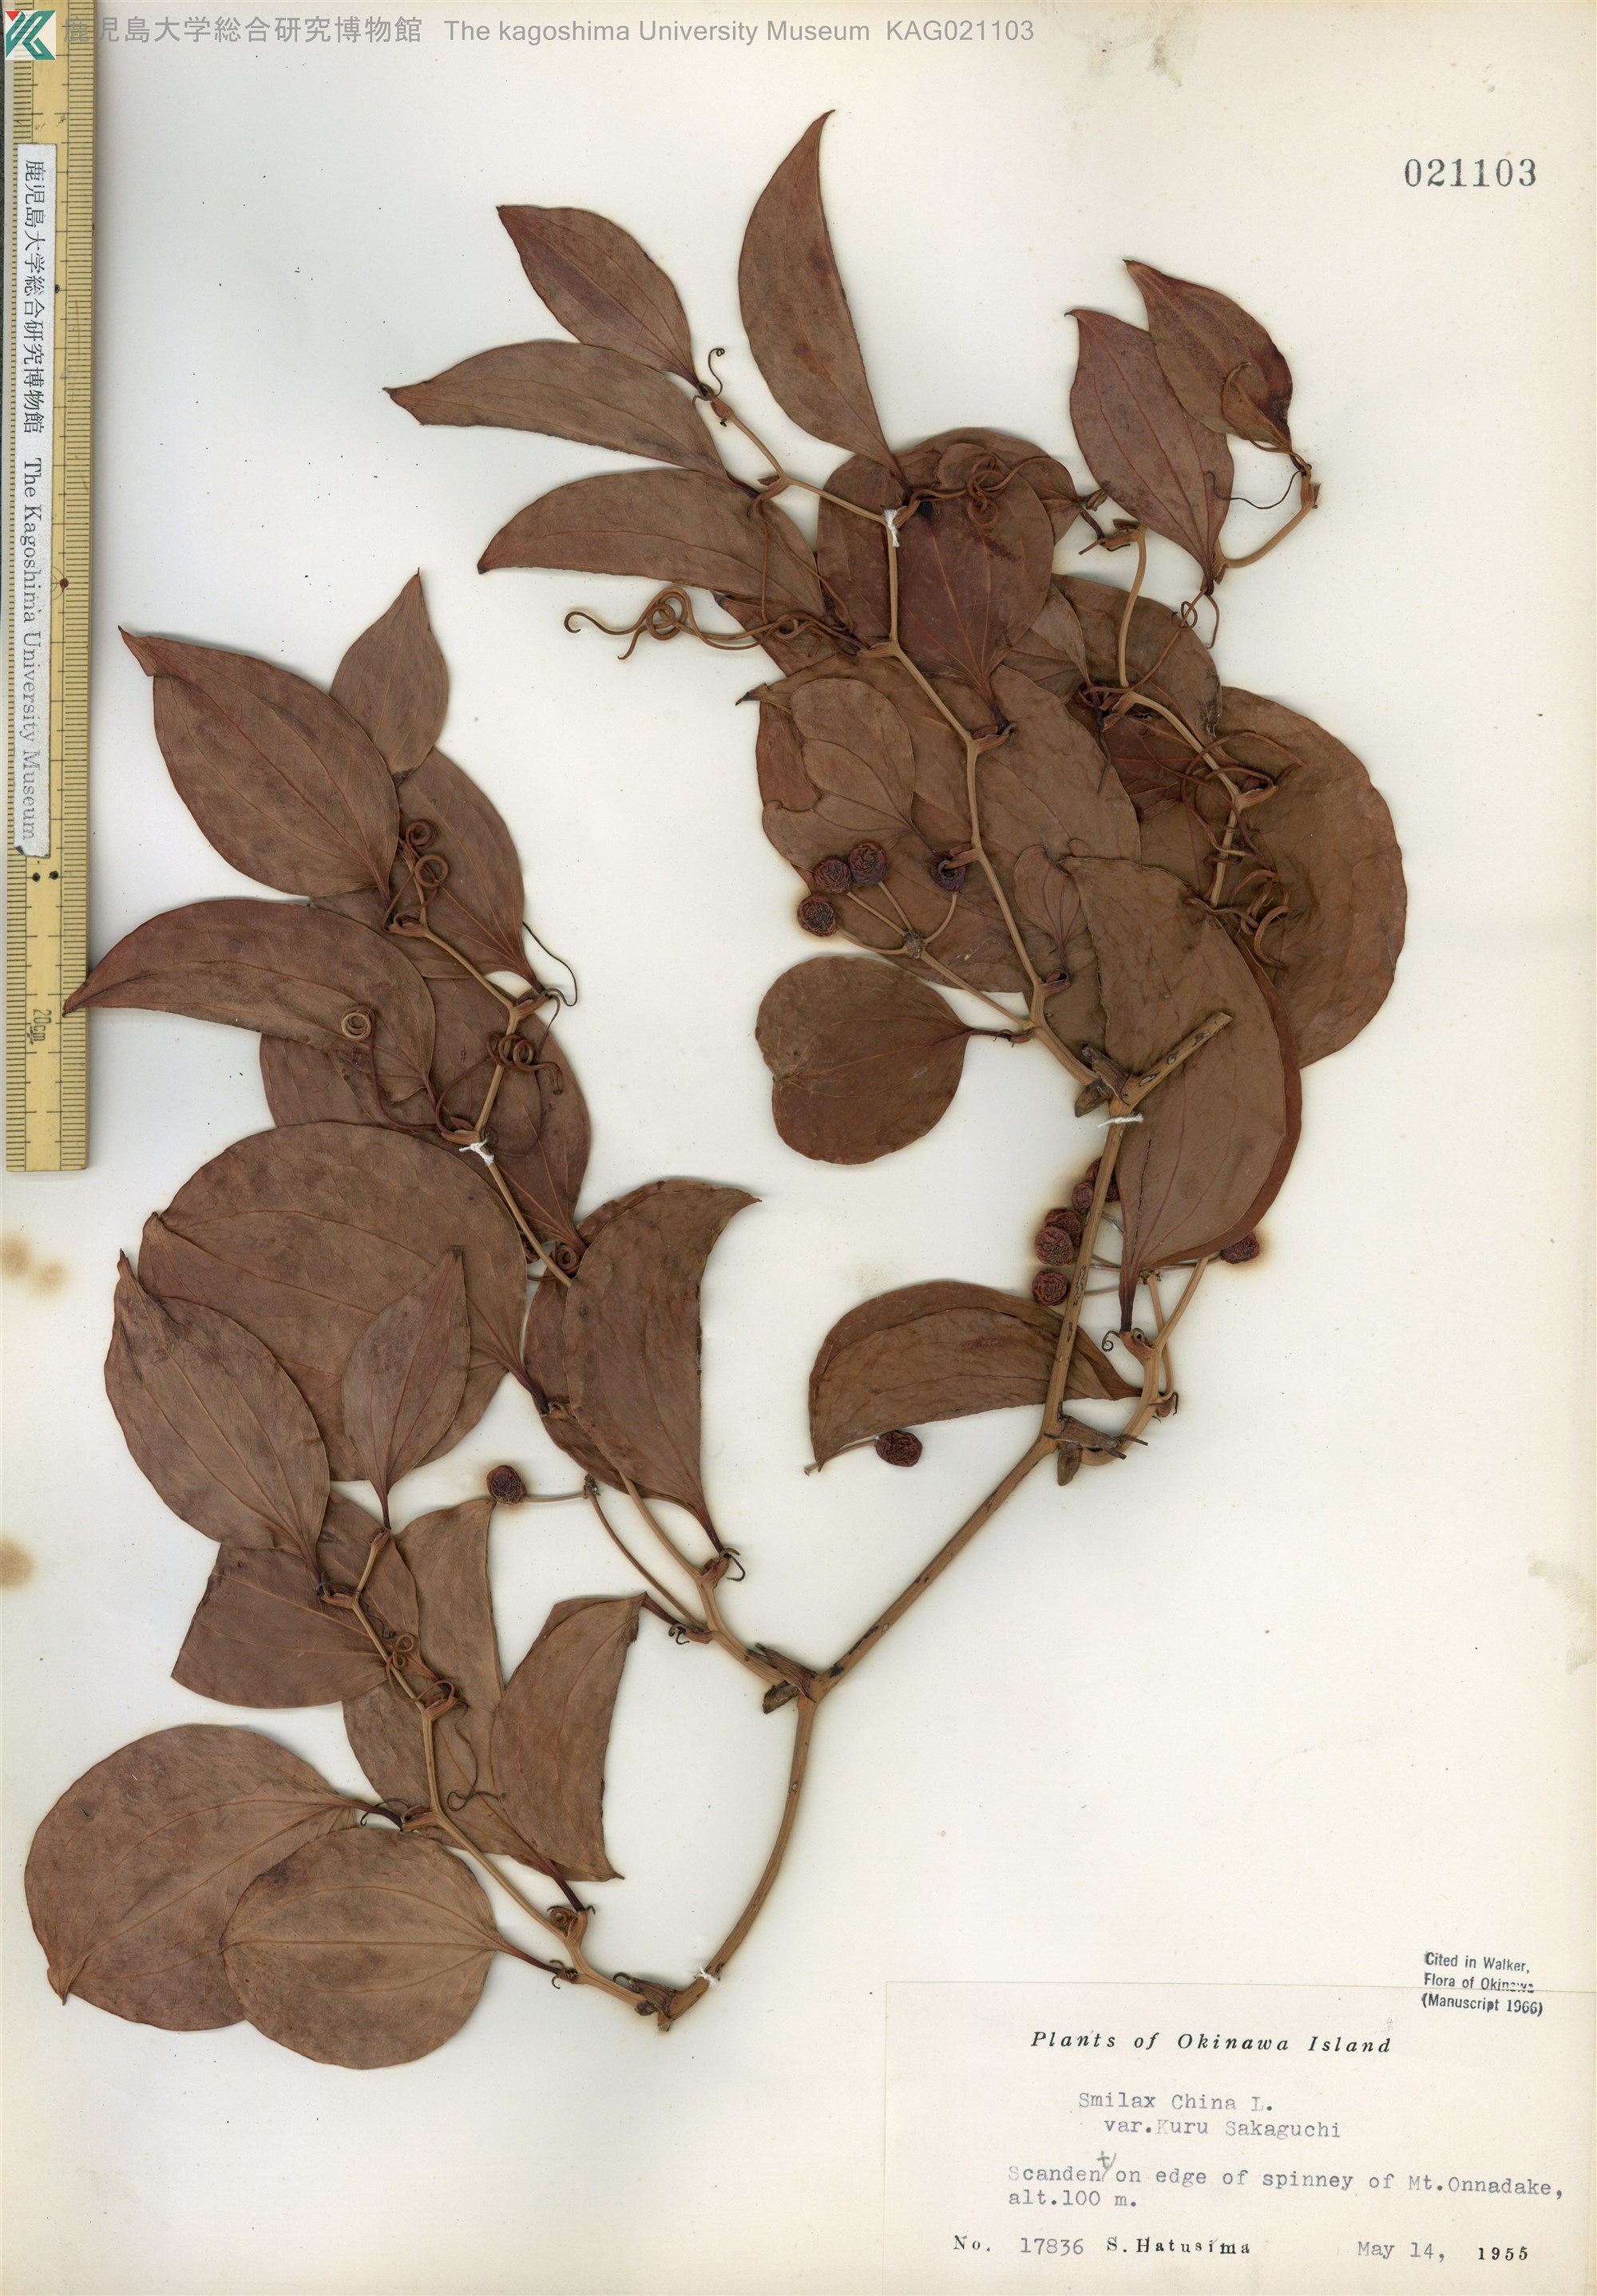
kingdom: Plantae
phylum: Tracheophyta
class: Liliopsida
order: Liliales
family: Smilacaceae
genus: Smilax
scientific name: Smilax china
